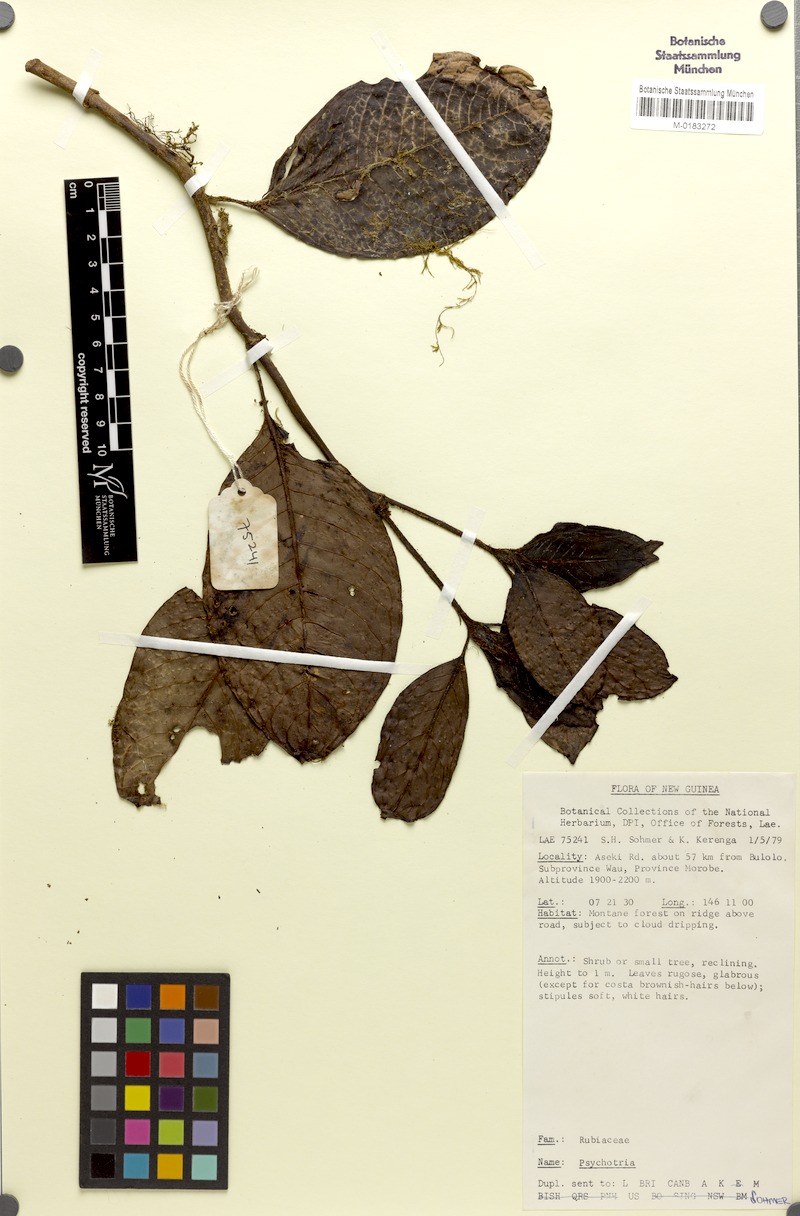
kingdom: Plantae
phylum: Tracheophyta
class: Magnoliopsida
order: Gentianales
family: Rubiaceae
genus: Psychotria
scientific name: Psychotria asekiensis
